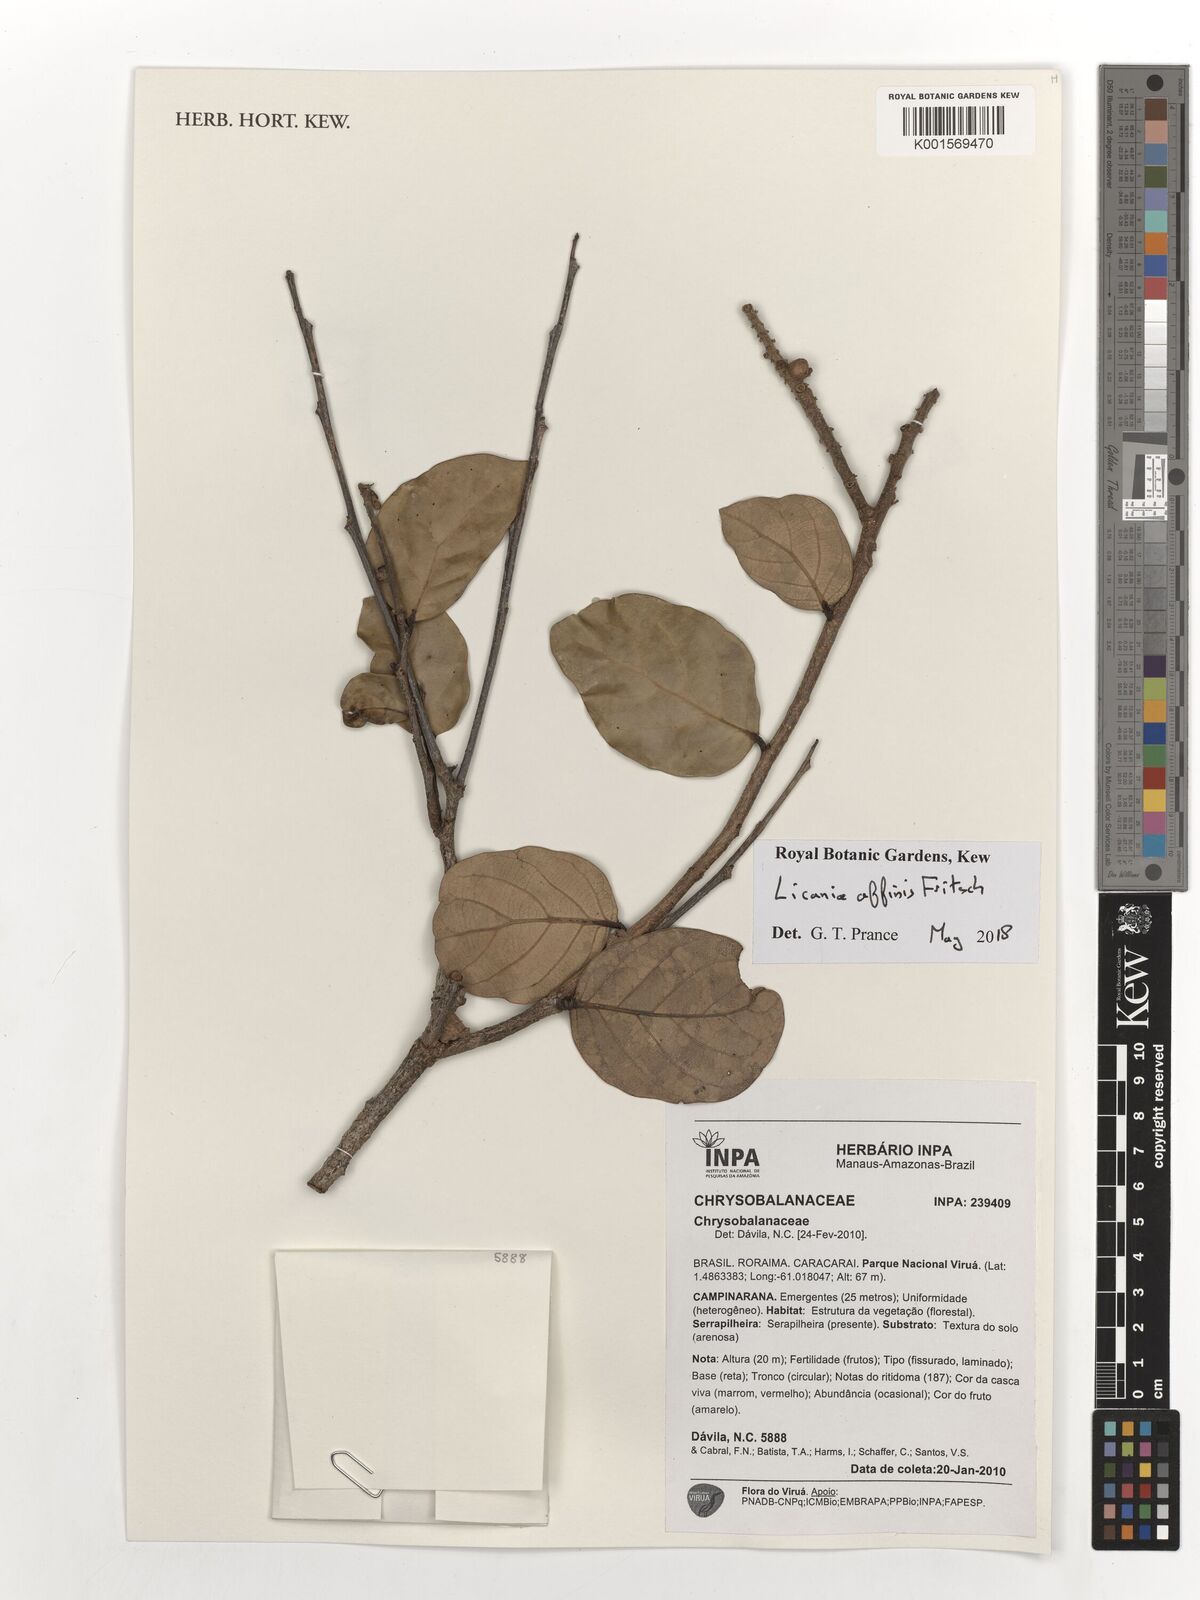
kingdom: Plantae
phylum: Tracheophyta
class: Magnoliopsida
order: Malpighiales
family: Chrysobalanaceae
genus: Licania
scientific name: Licania affinis
